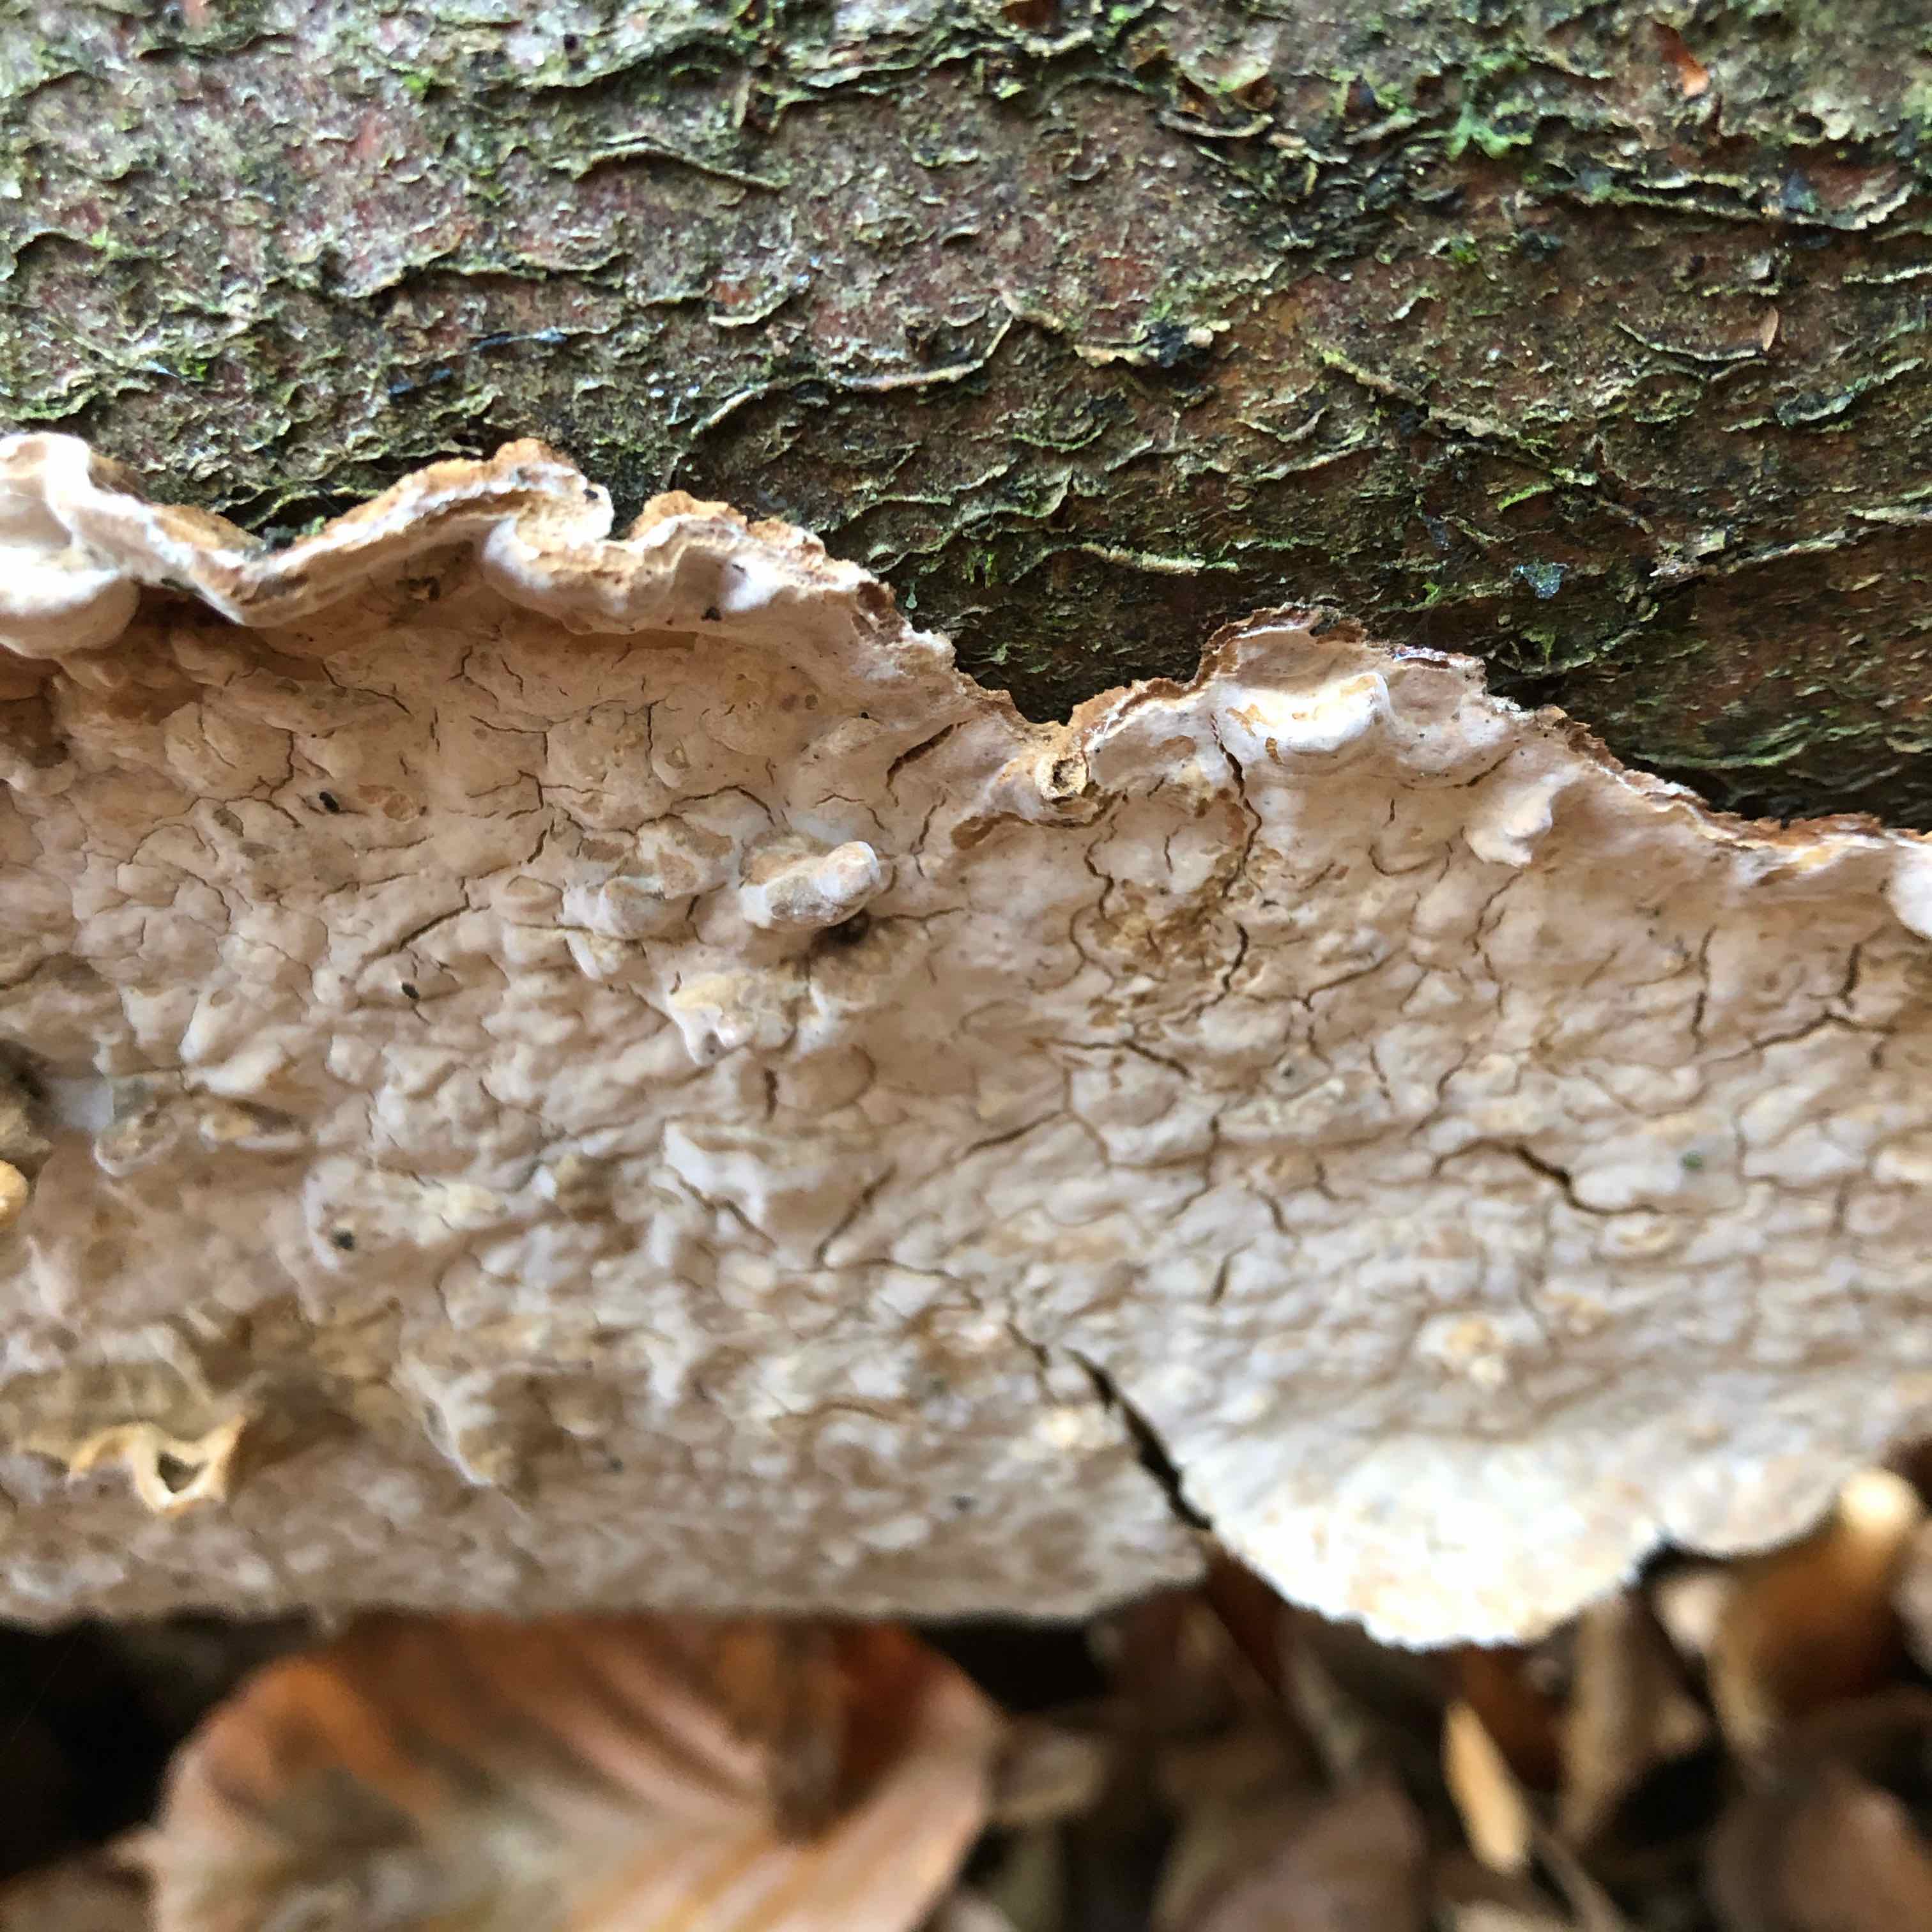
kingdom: Fungi
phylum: Basidiomycota
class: Agaricomycetes
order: Russulales
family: Stereaceae
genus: Stereum
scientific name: Stereum rugosum
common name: rynket lædersvamp
